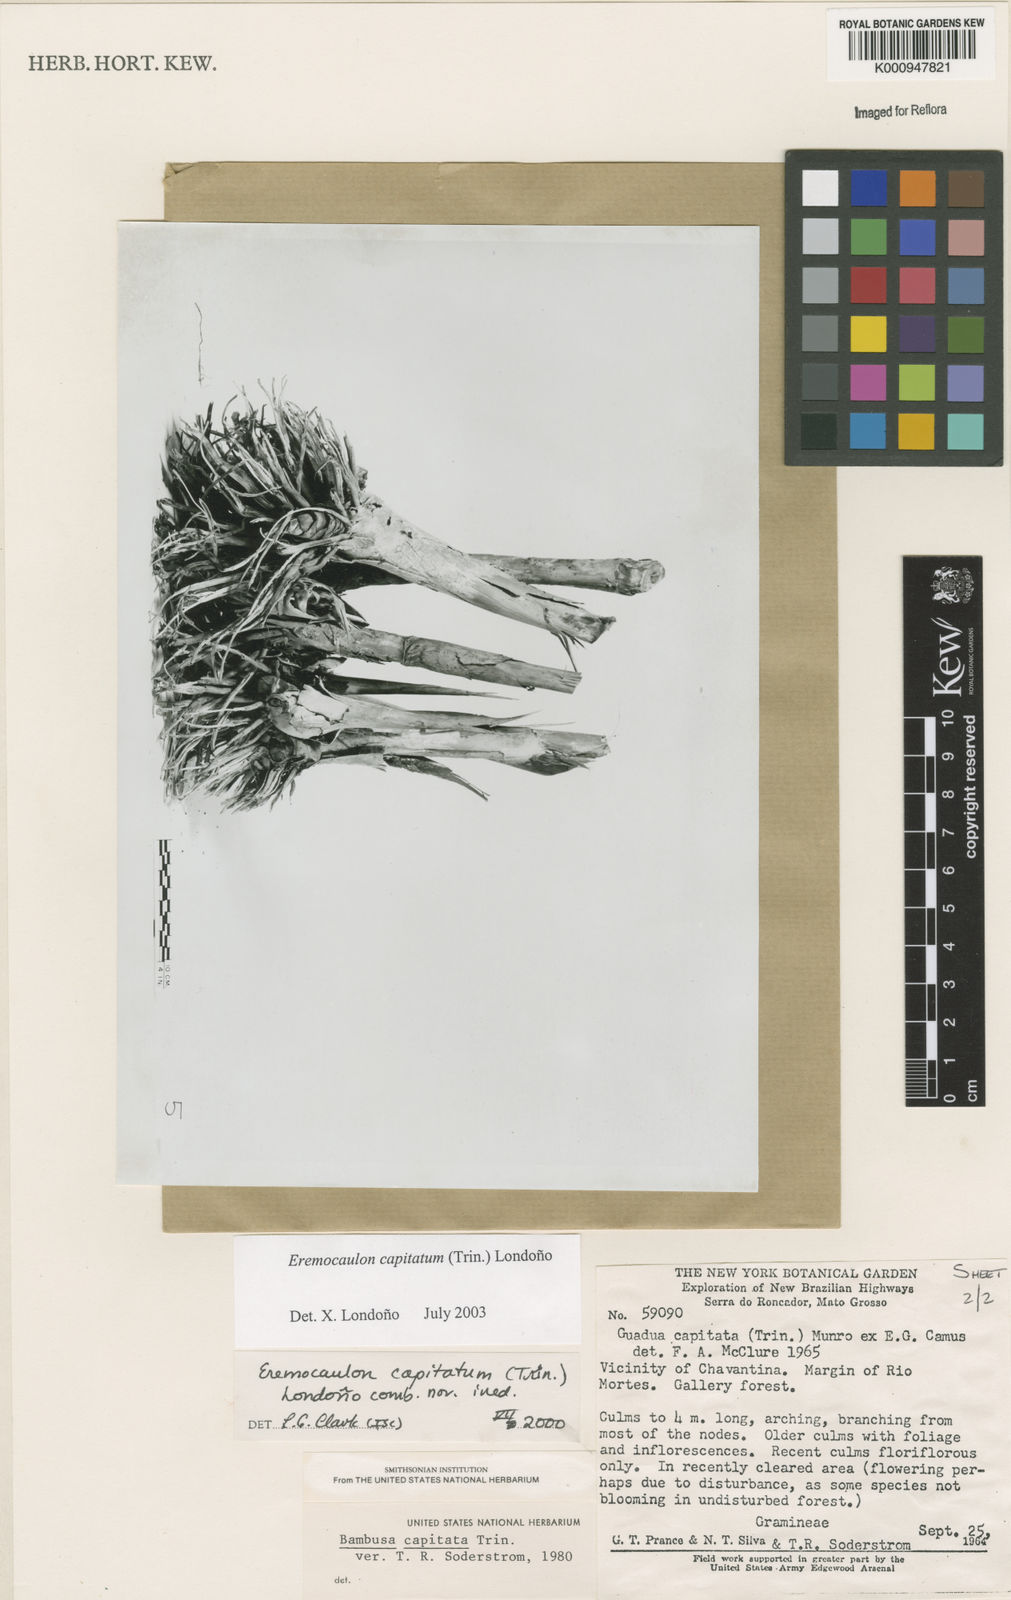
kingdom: Plantae
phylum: Tracheophyta
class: Liliopsida
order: Poales
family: Poaceae
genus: Eremocaulon
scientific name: Eremocaulon
